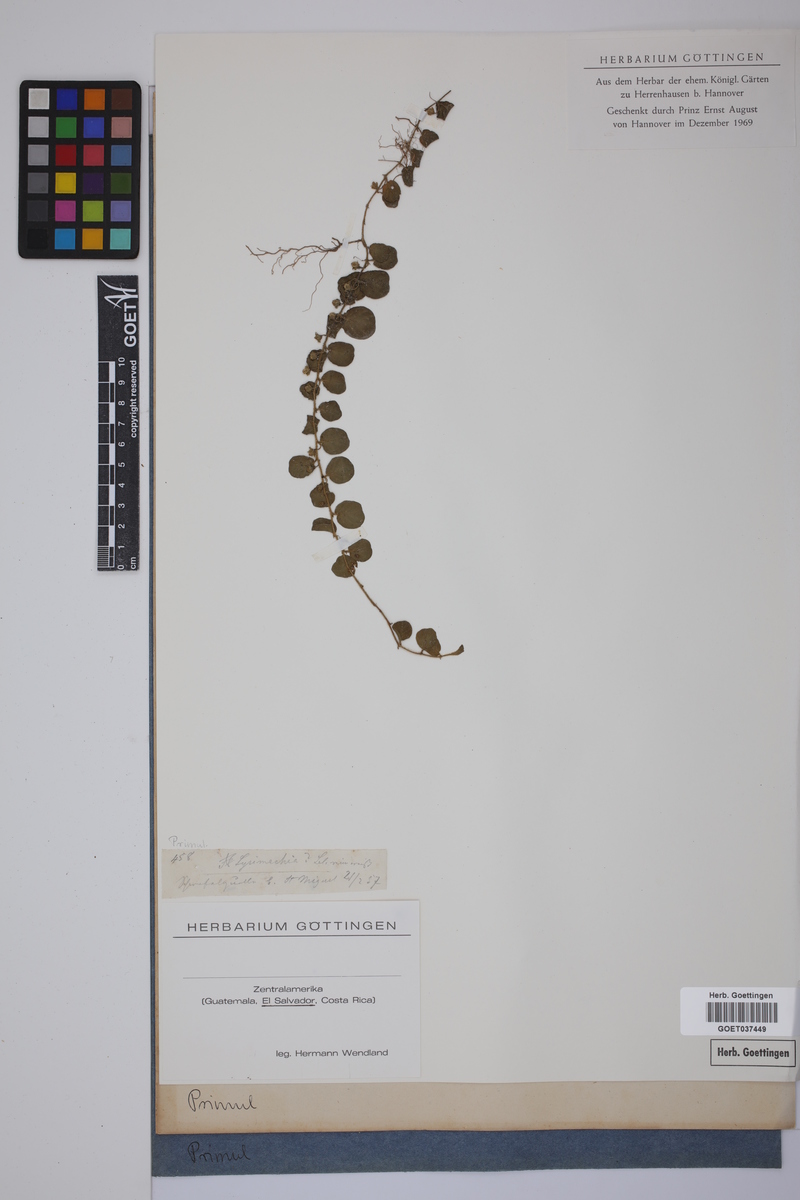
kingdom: Plantae
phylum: Tracheophyta
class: Magnoliopsida
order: Ericales
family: Primulaceae
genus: Lysimachia
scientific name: Lysimachia
